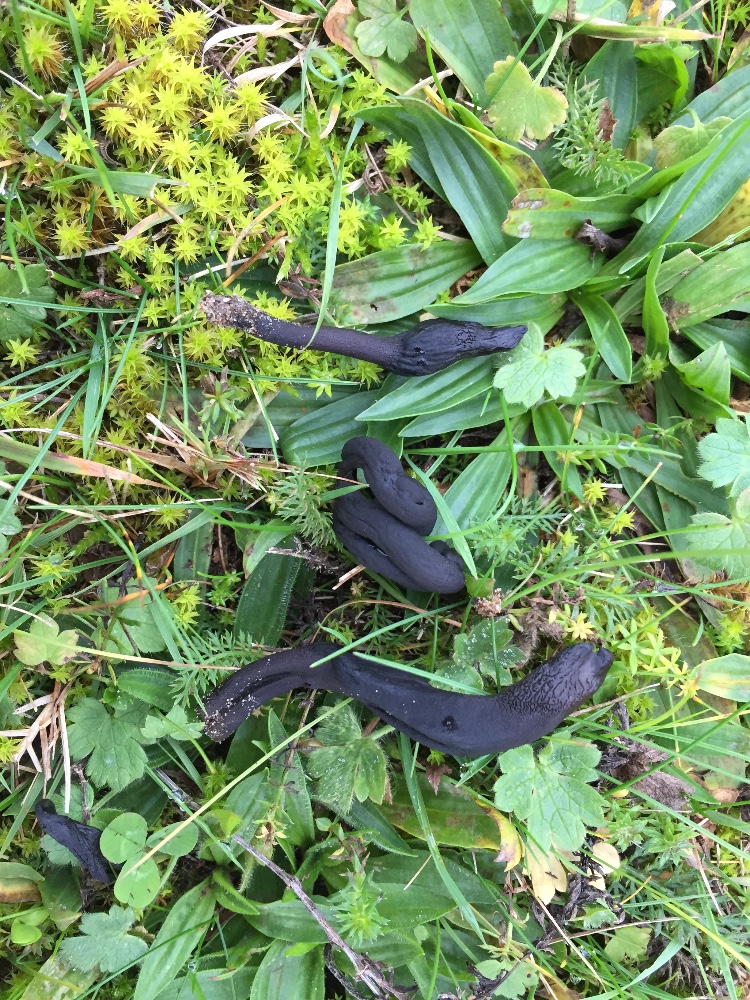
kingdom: Fungi
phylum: Ascomycota
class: Geoglossomycetes
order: Geoglossales
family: Geoglossaceae
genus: Geoglossum
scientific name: Geoglossum cookeianum
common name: bred jordtunge
